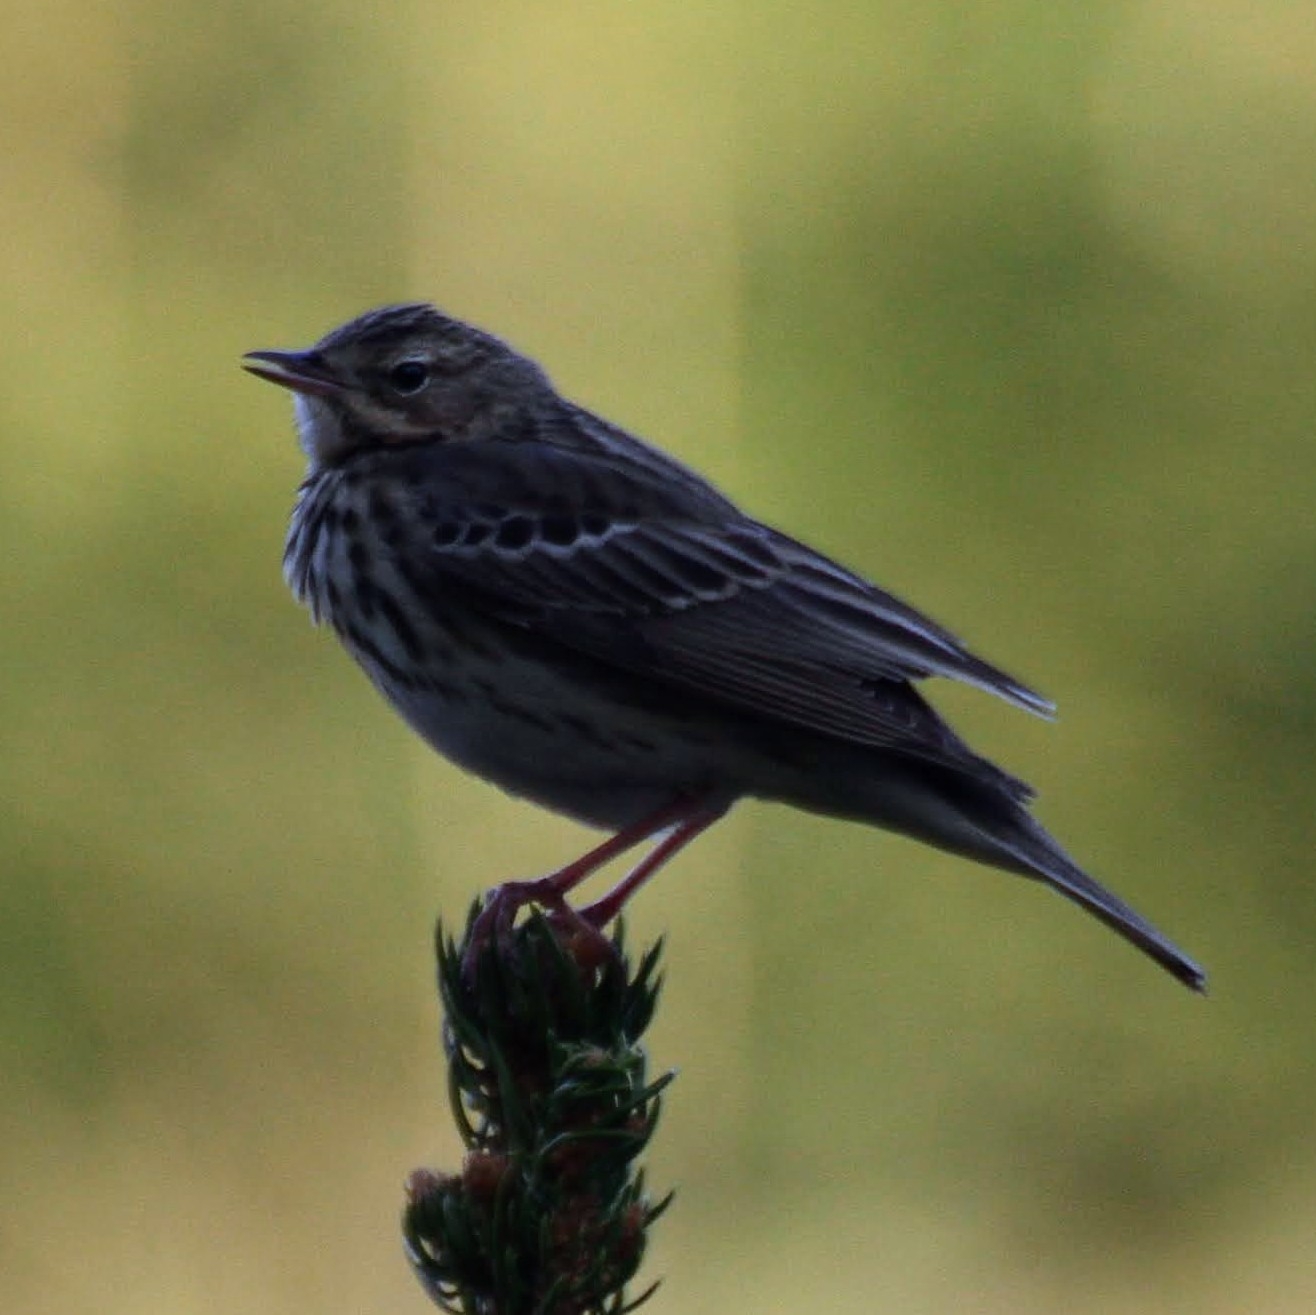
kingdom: Animalia
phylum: Chordata
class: Aves
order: Passeriformes
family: Motacillidae
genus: Anthus
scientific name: Anthus trivialis
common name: Skovpiber
